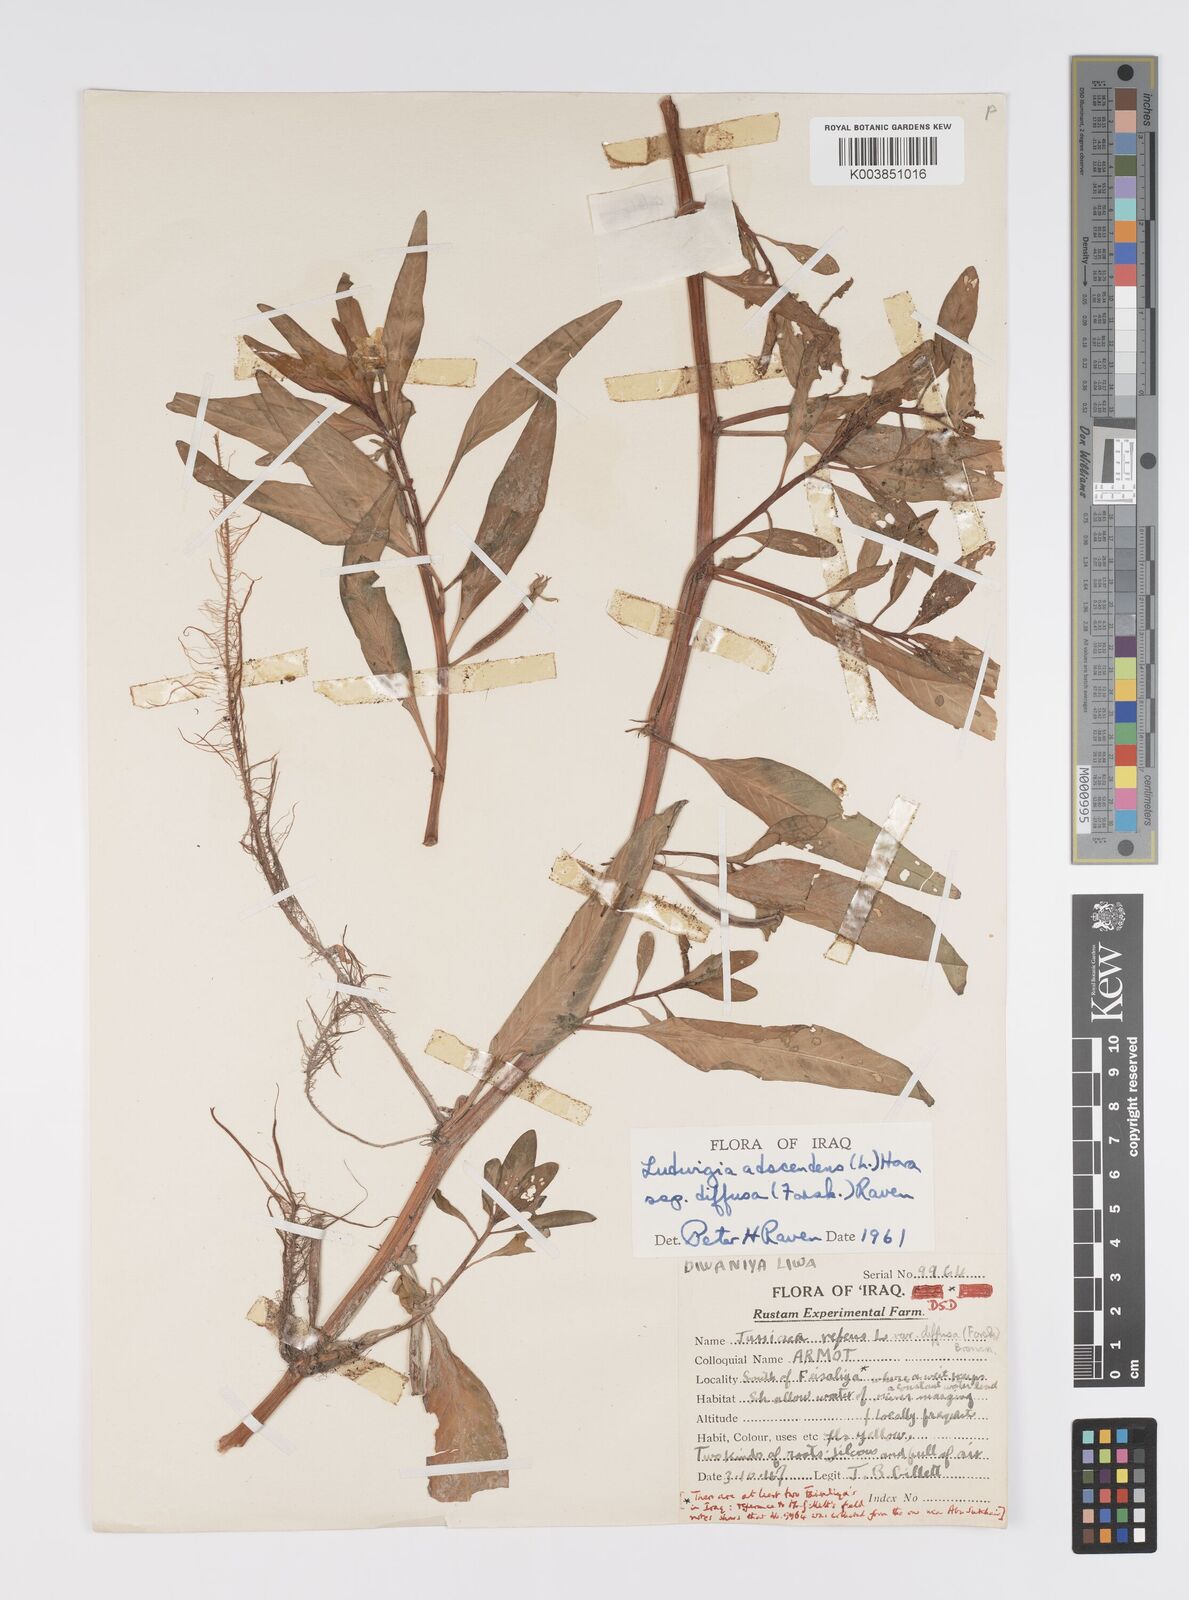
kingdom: Plantae
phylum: Tracheophyta
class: Magnoliopsida
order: Myrtales
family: Onagraceae
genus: Ludwigia
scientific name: Ludwigia adscendens
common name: Creeping water primrose
